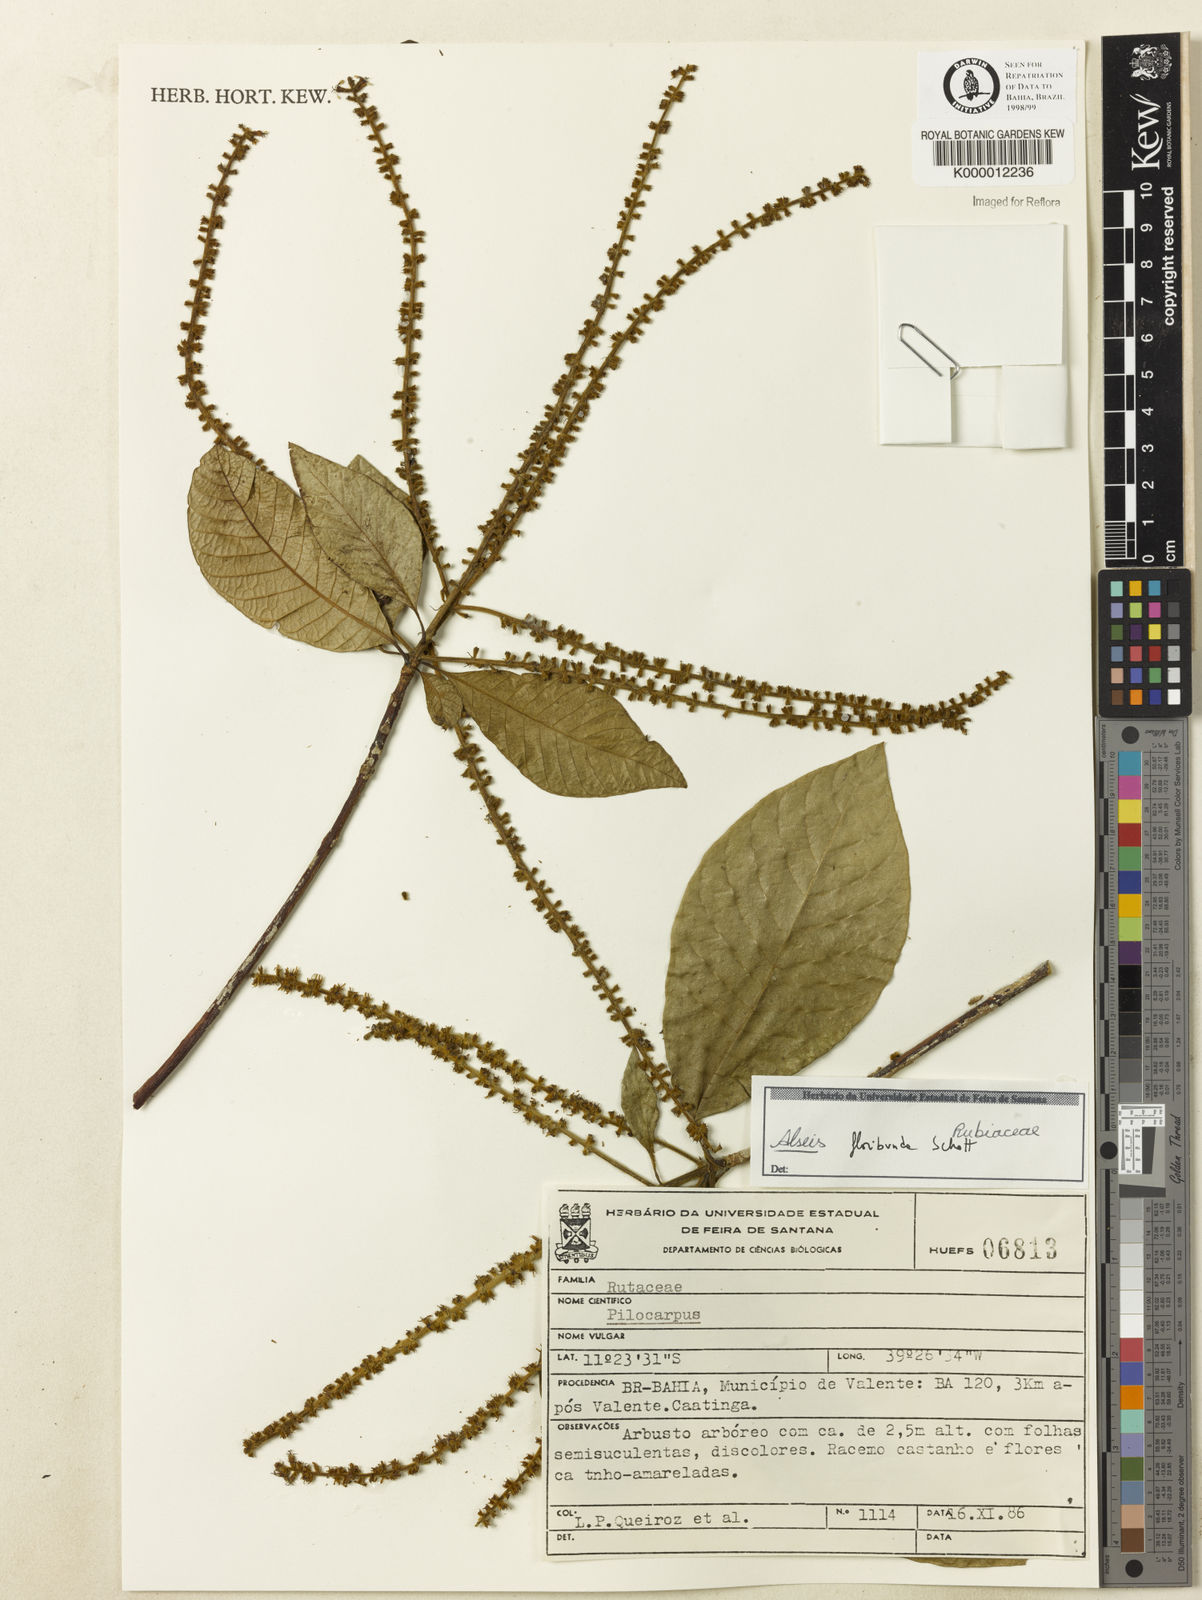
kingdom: Plantae
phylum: Tracheophyta
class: Magnoliopsida
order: Gentianales
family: Rubiaceae
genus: Alseis
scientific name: Alseis floribunda
